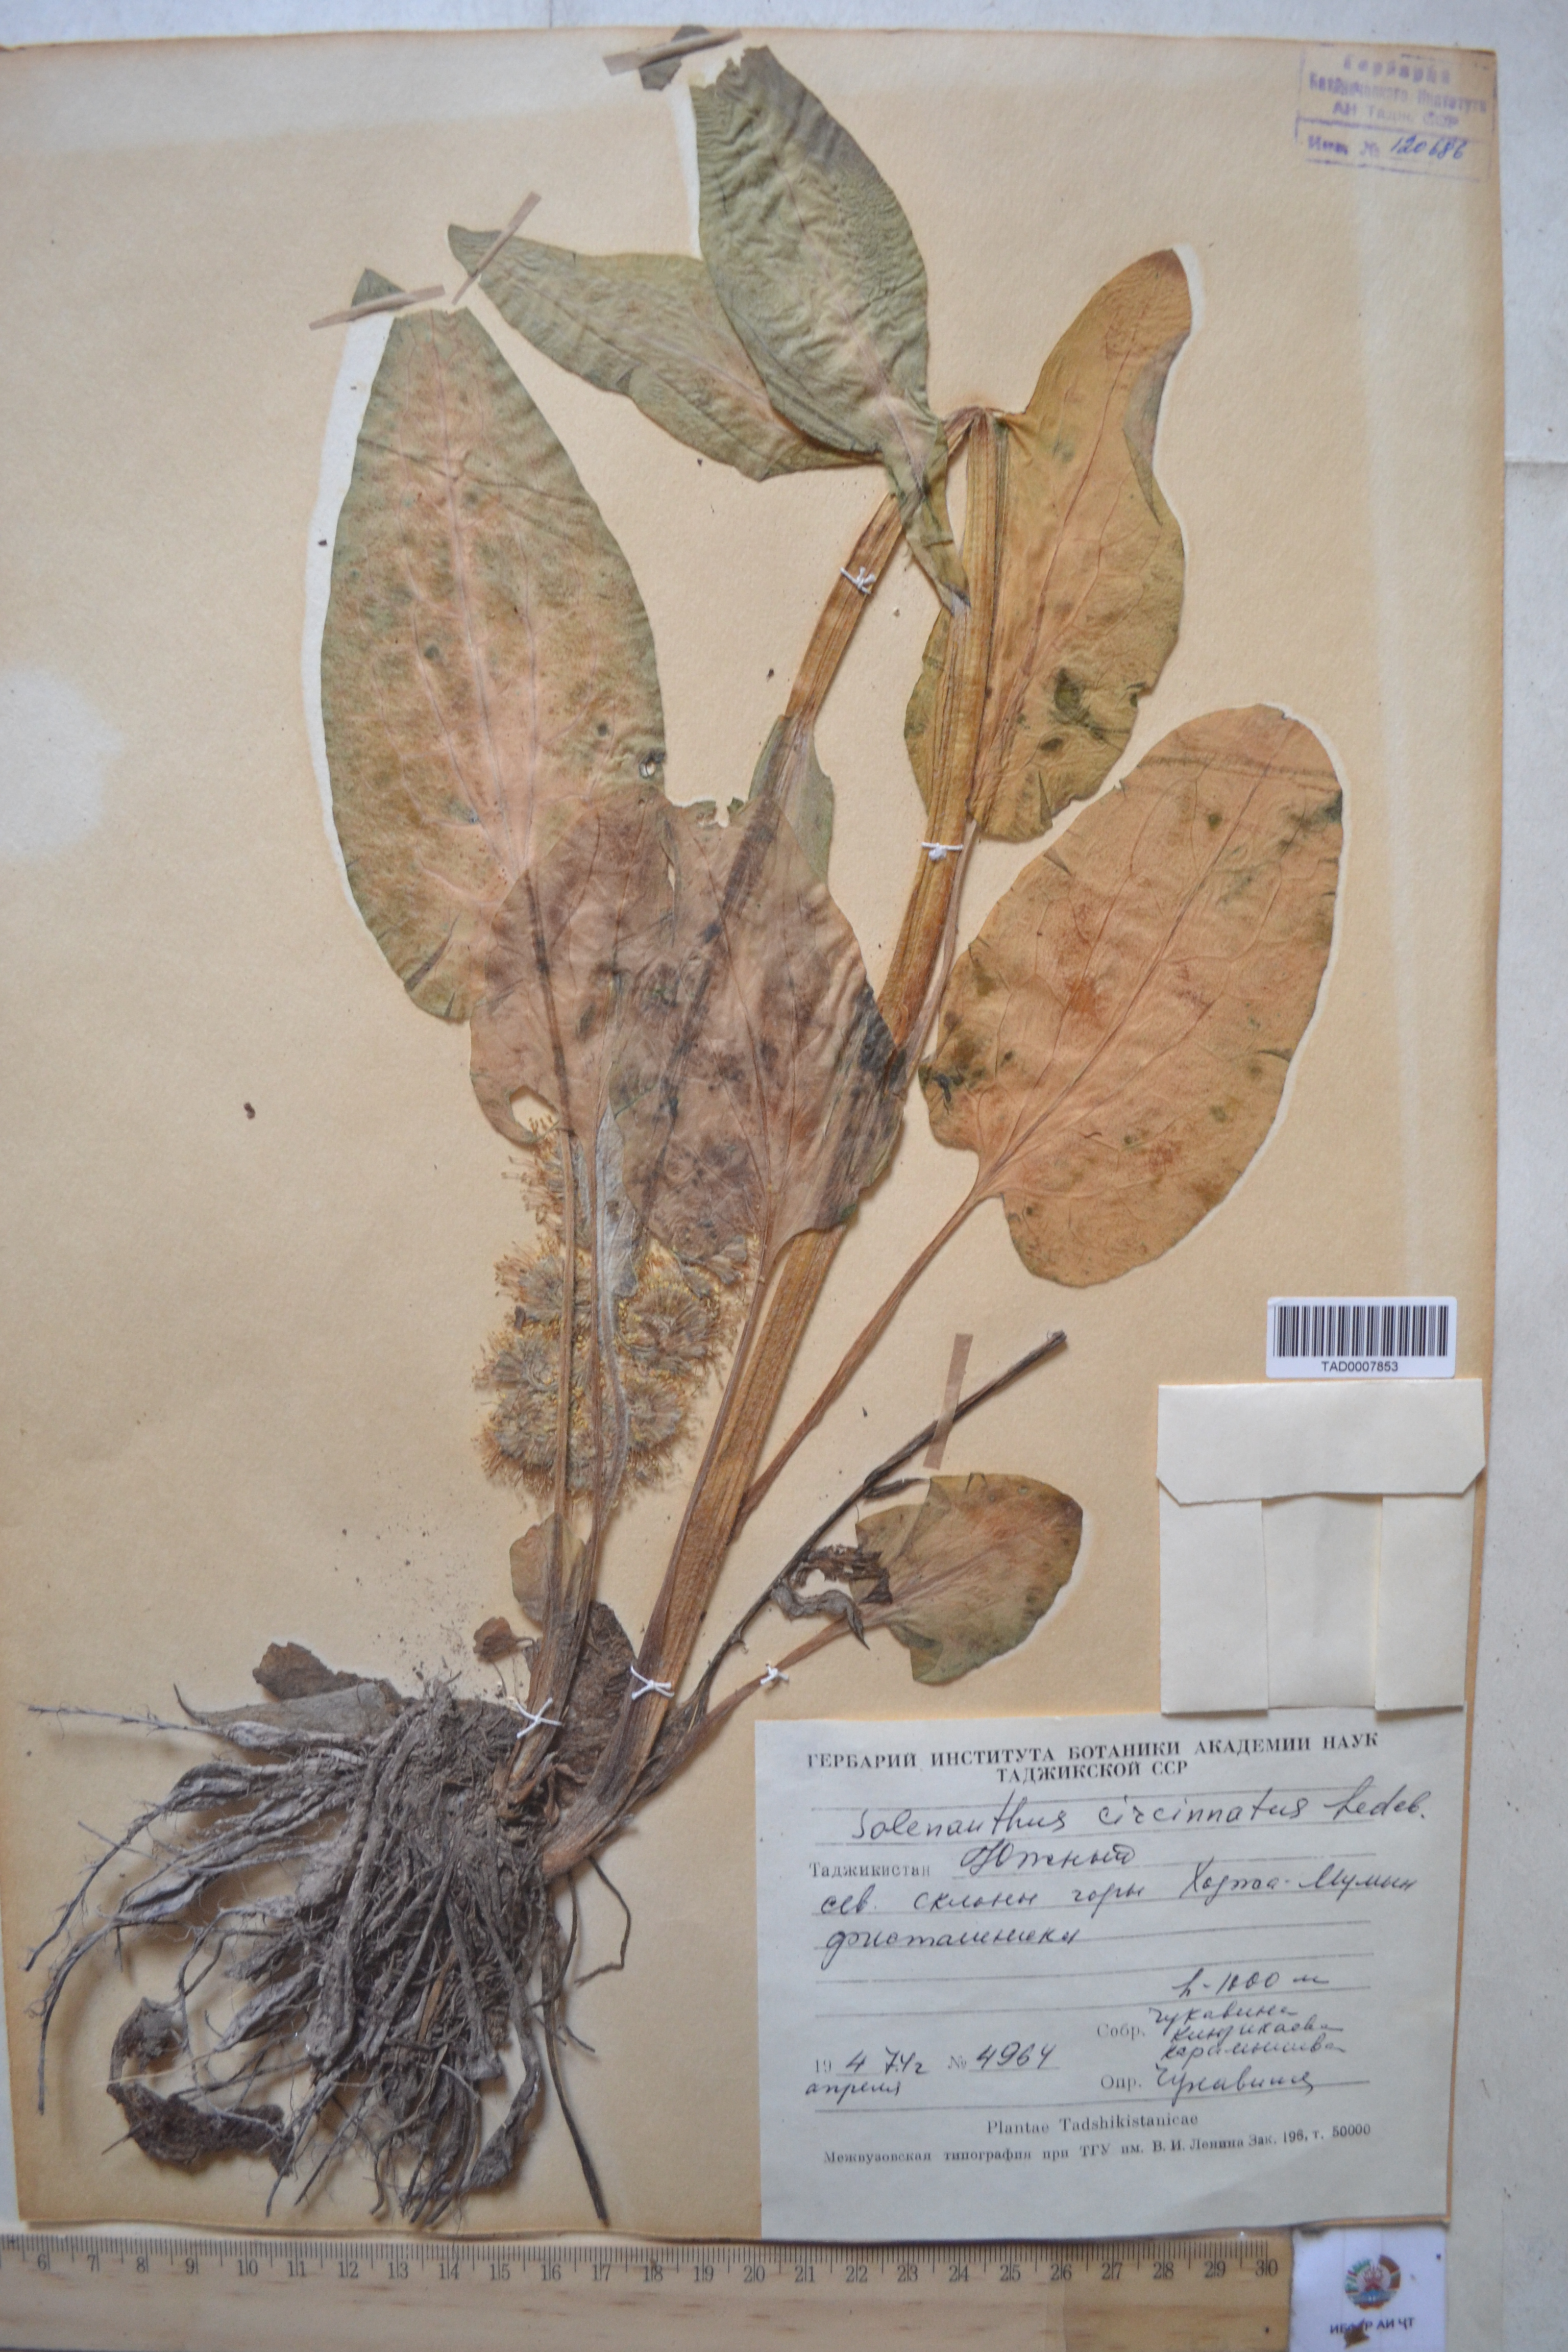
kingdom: Plantae
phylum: Tracheophyta
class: Magnoliopsida
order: Boraginales
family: Boraginaceae
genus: Solenanthus
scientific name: Solenanthus circinnatus
